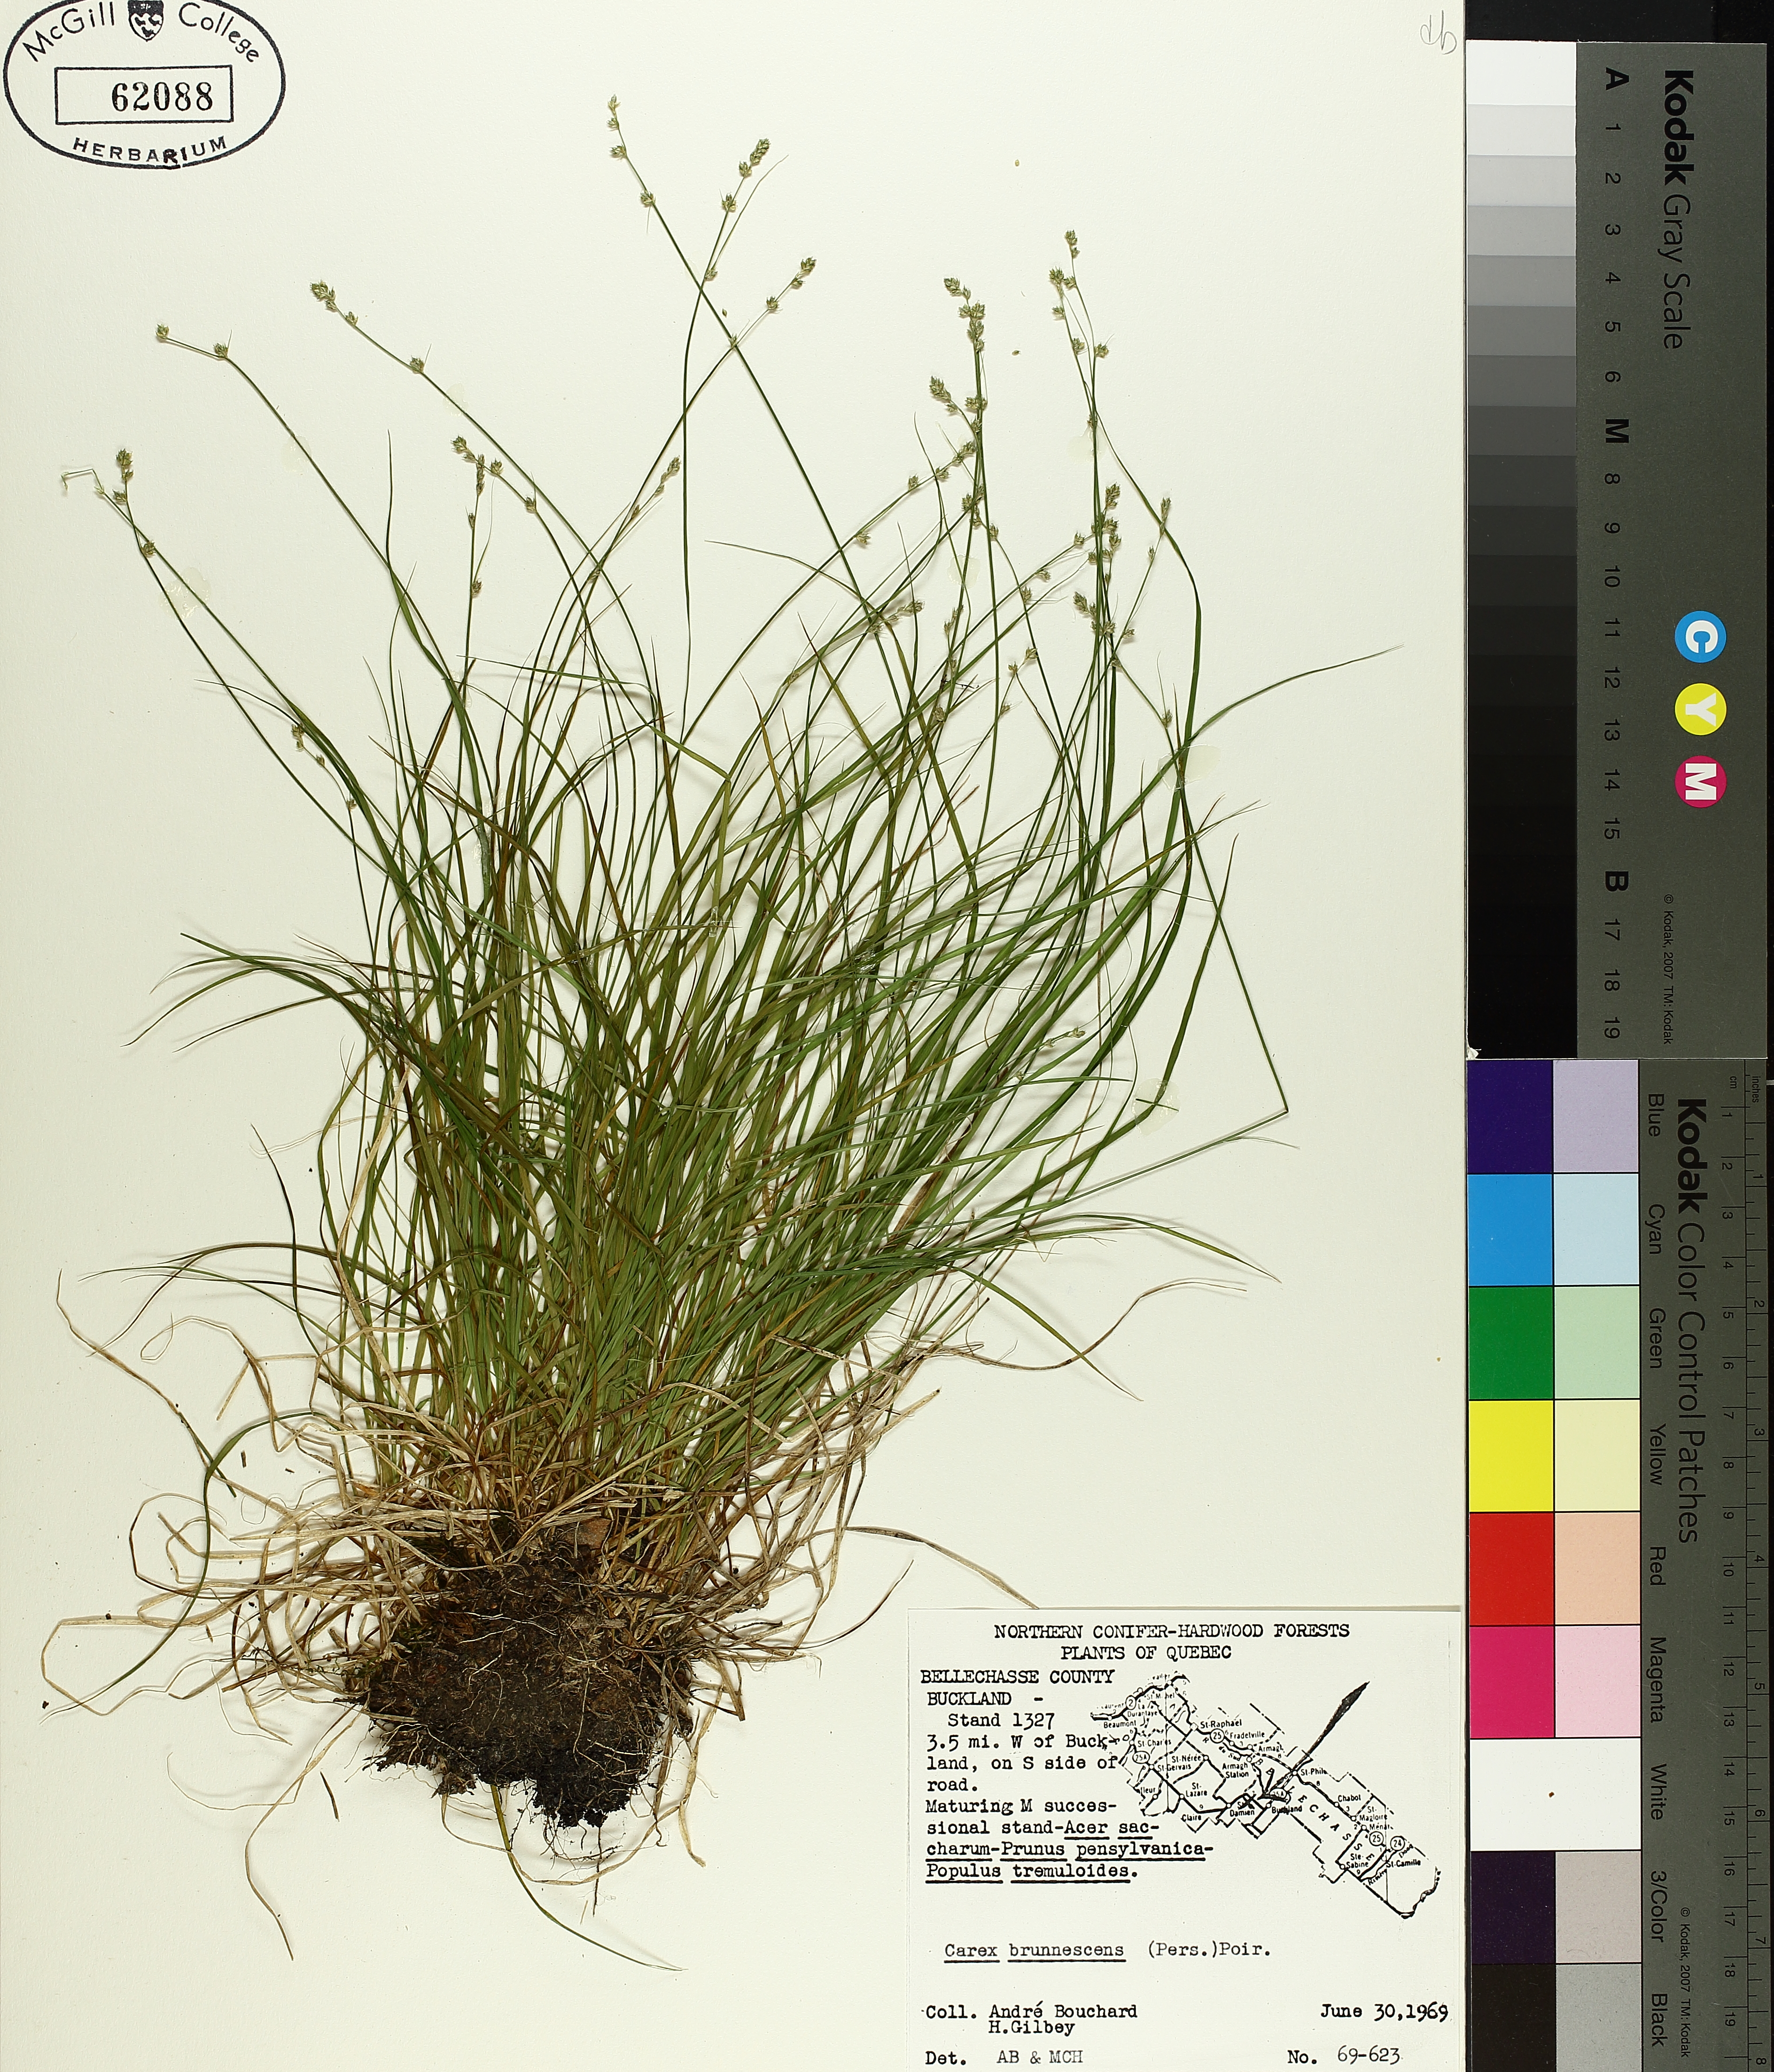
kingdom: Plantae
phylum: Tracheophyta
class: Liliopsida
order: Poales
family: Cyperaceae
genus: Carex
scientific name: Carex brunnescens
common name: Brown sedge
